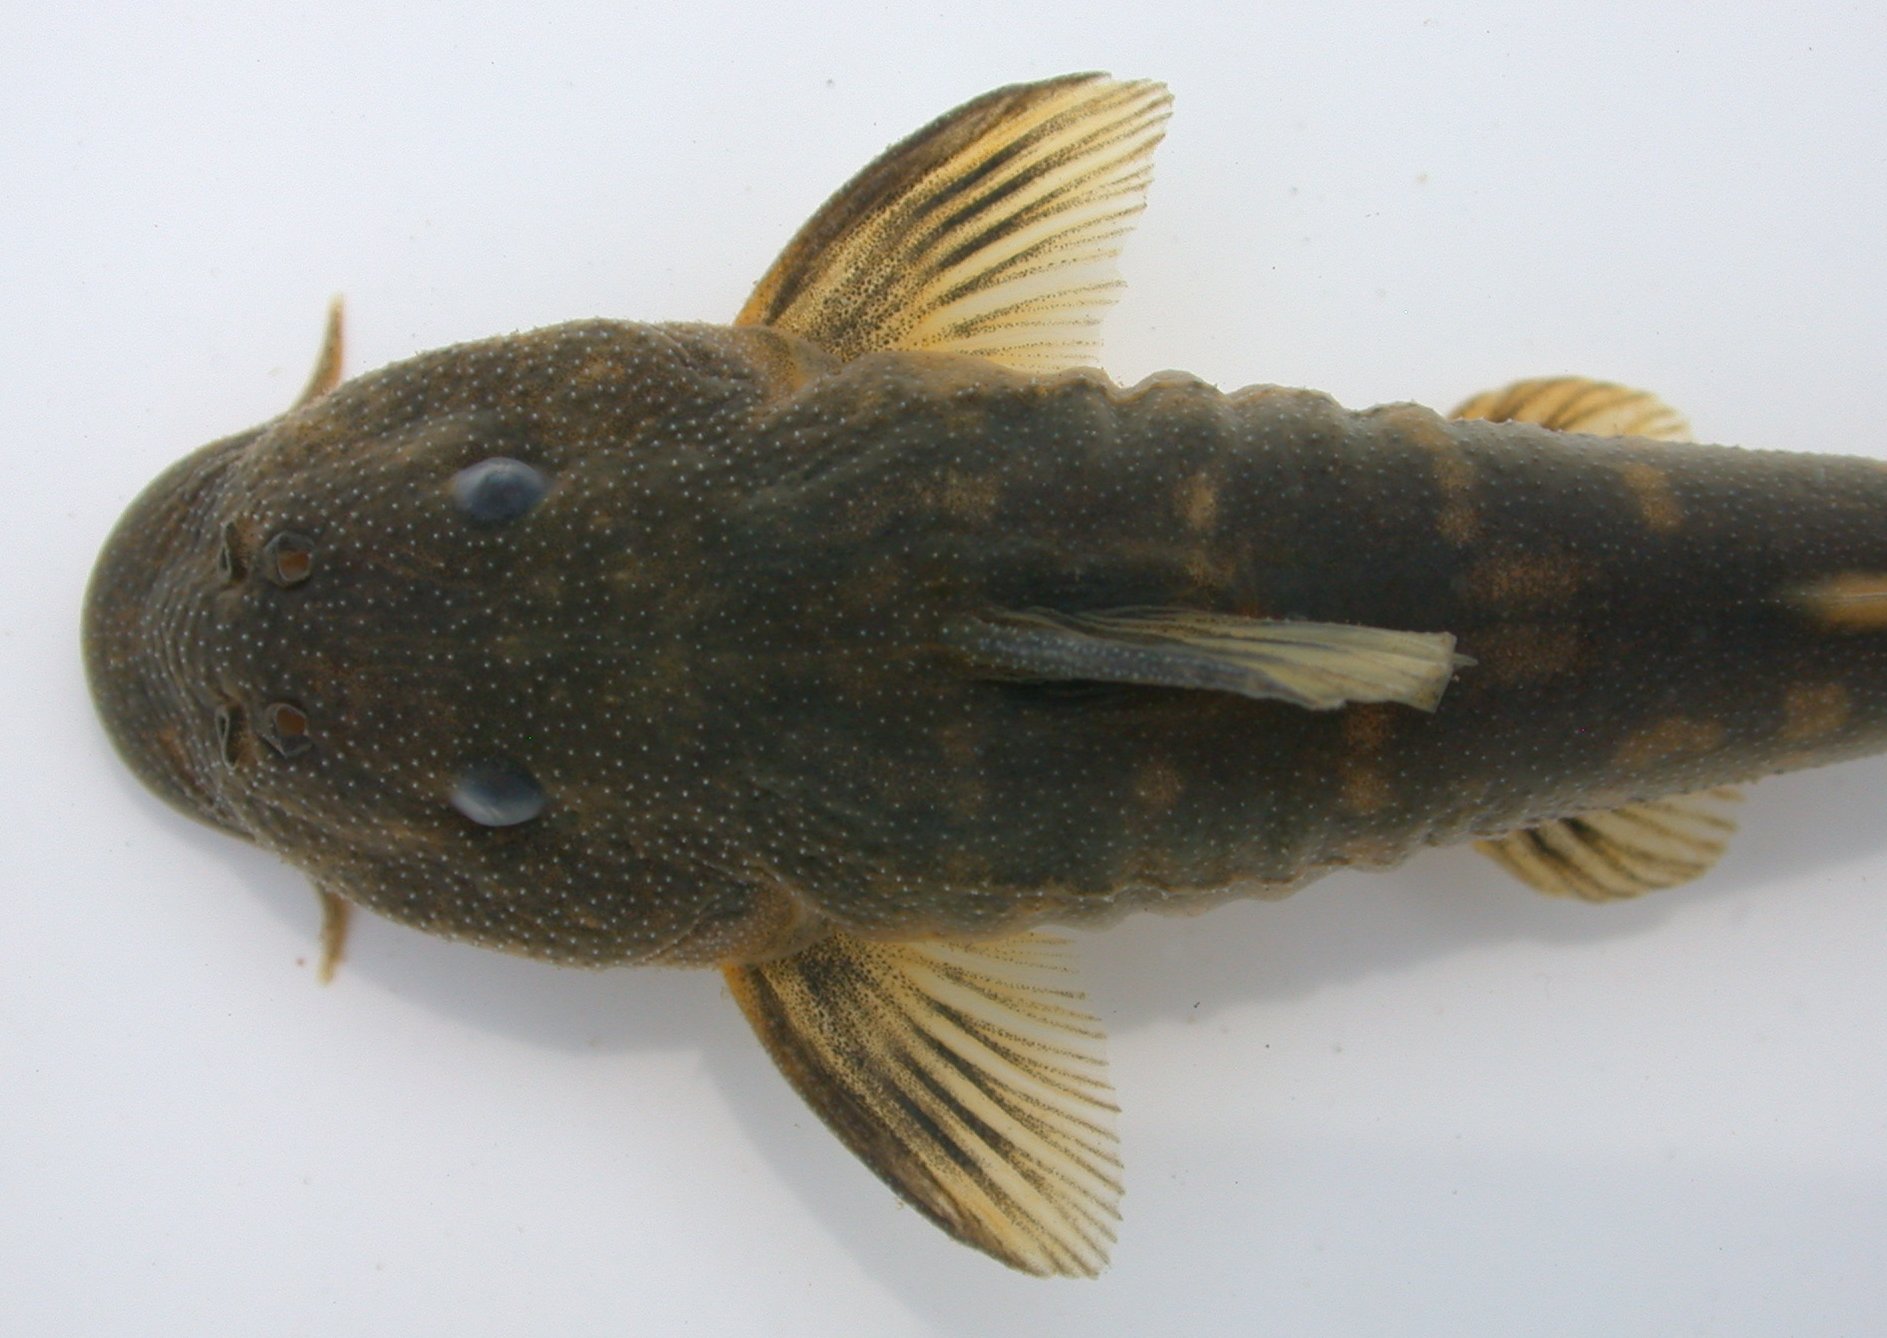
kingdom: Animalia
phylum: Chordata
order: Siluriformes
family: Mochokidae
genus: Chiloglanis
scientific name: Chiloglanis pretoriae
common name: Shortspine catlet
